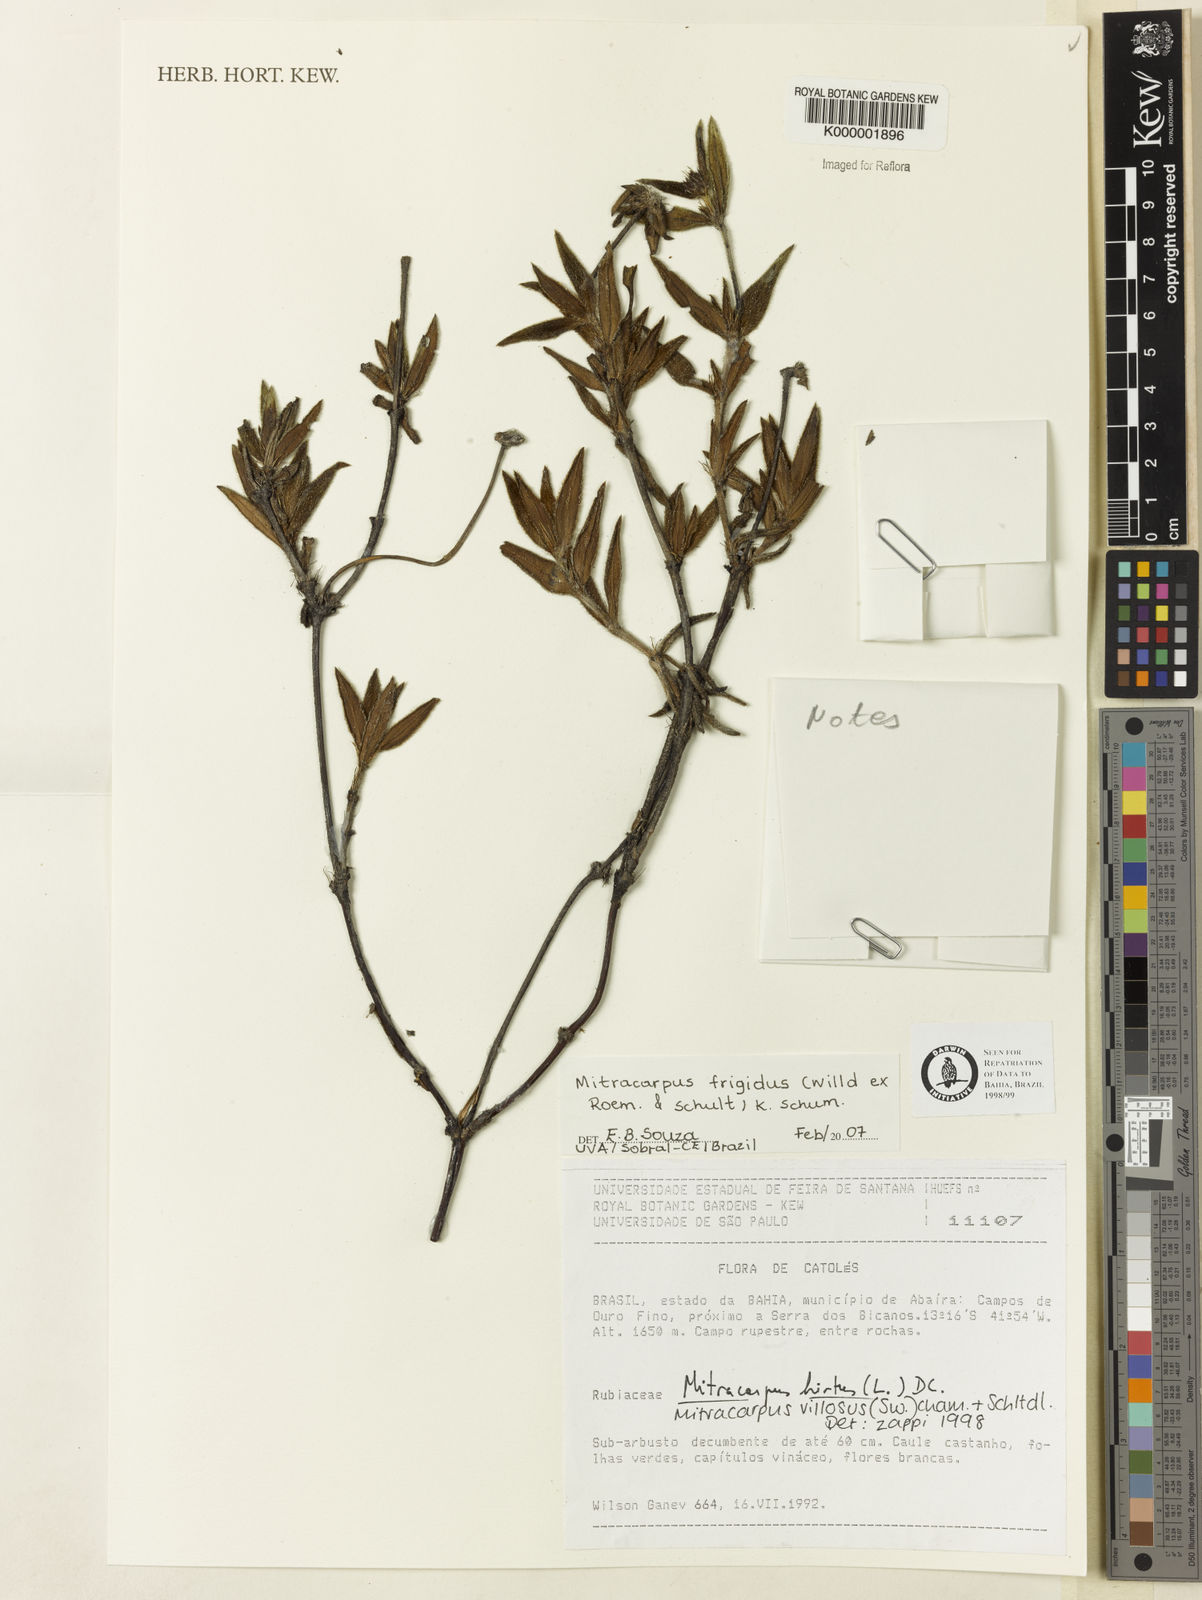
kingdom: Plantae
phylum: Tracheophyta
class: Magnoliopsida
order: Gentianales
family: Rubiaceae
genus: Mitracarpus
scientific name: Mitracarpus frigidus
